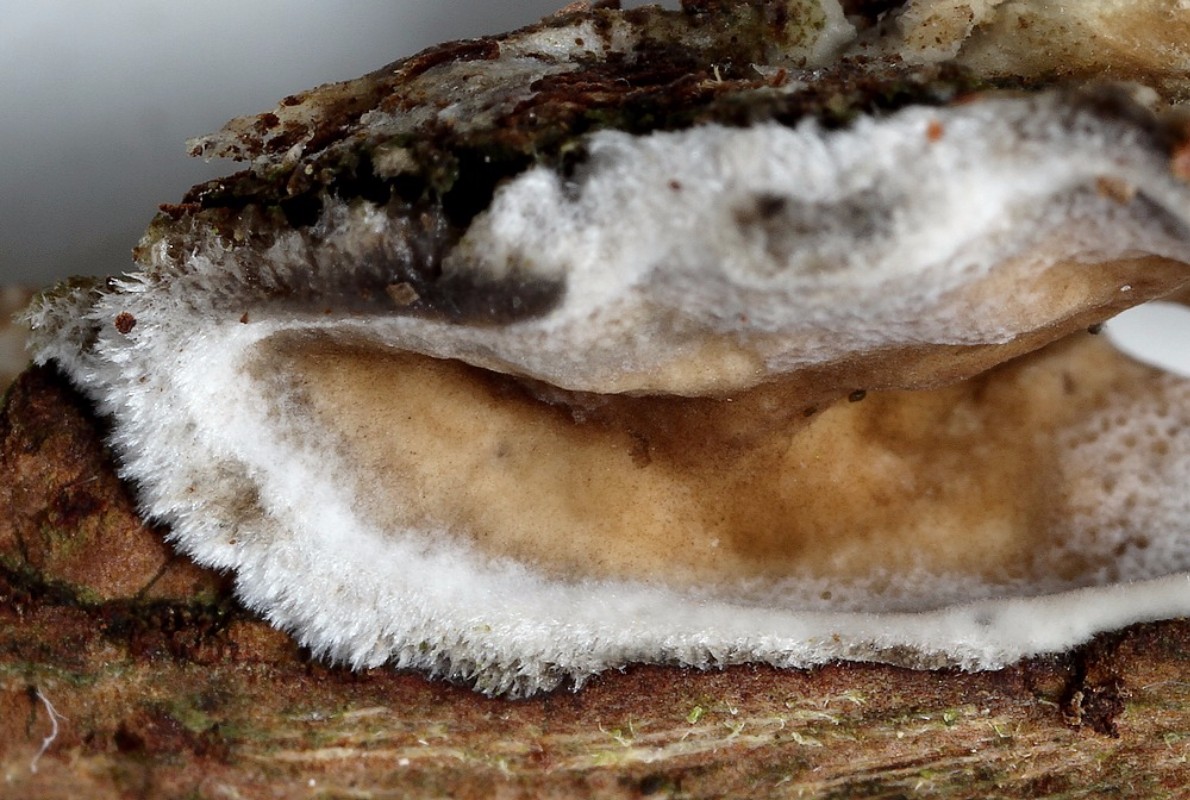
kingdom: Fungi
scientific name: Fungi
